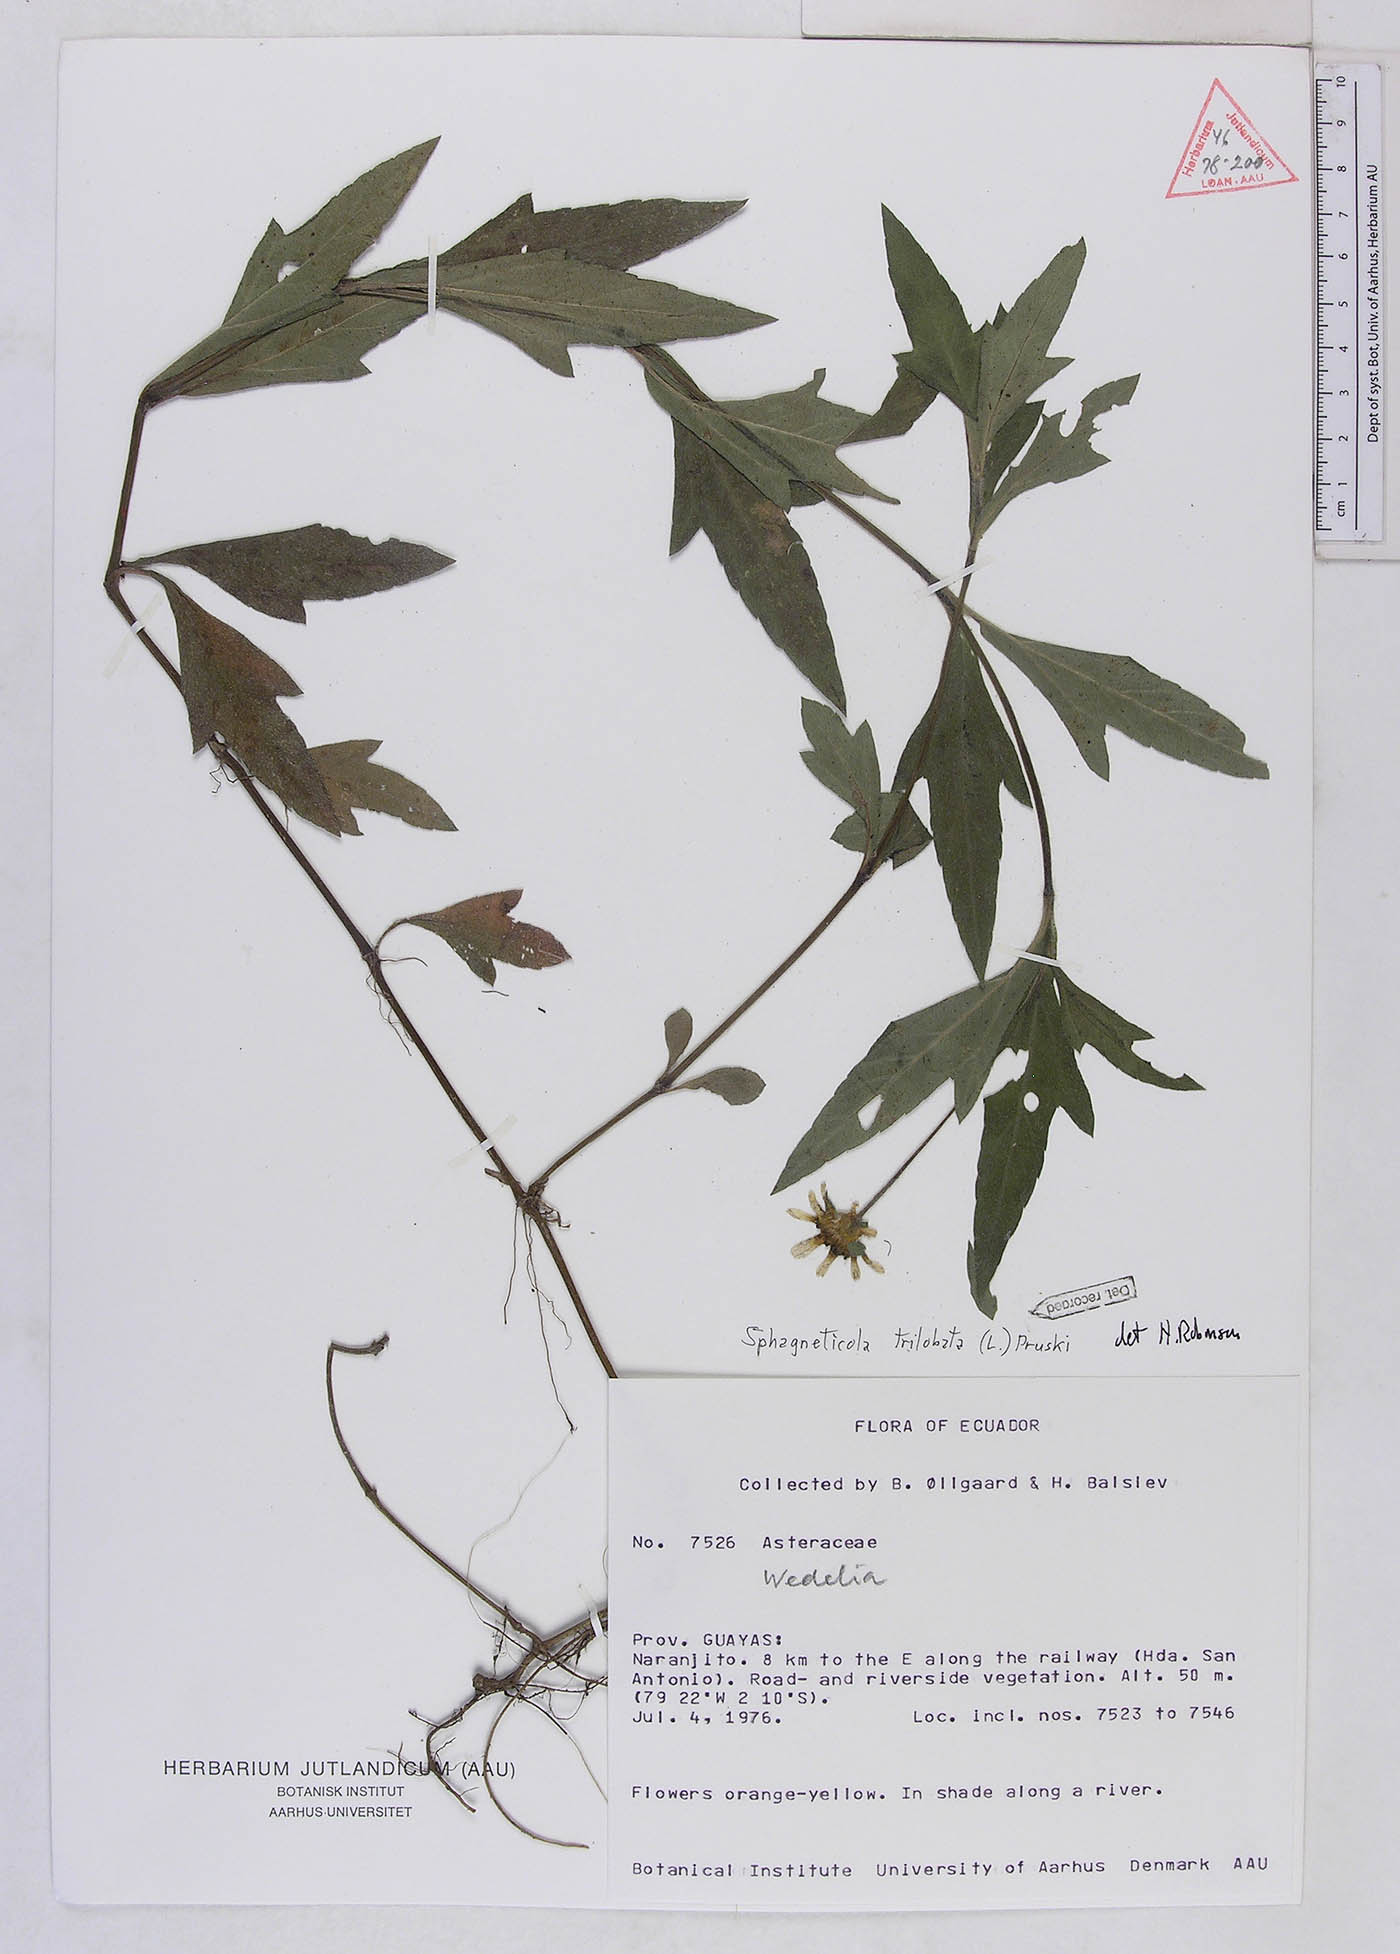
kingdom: Plantae
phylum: Tracheophyta
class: Magnoliopsida
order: Asterales
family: Asteraceae
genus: Sphagneticola
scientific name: Sphagneticola trilobata
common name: Bay biscayne creeping-oxeye
